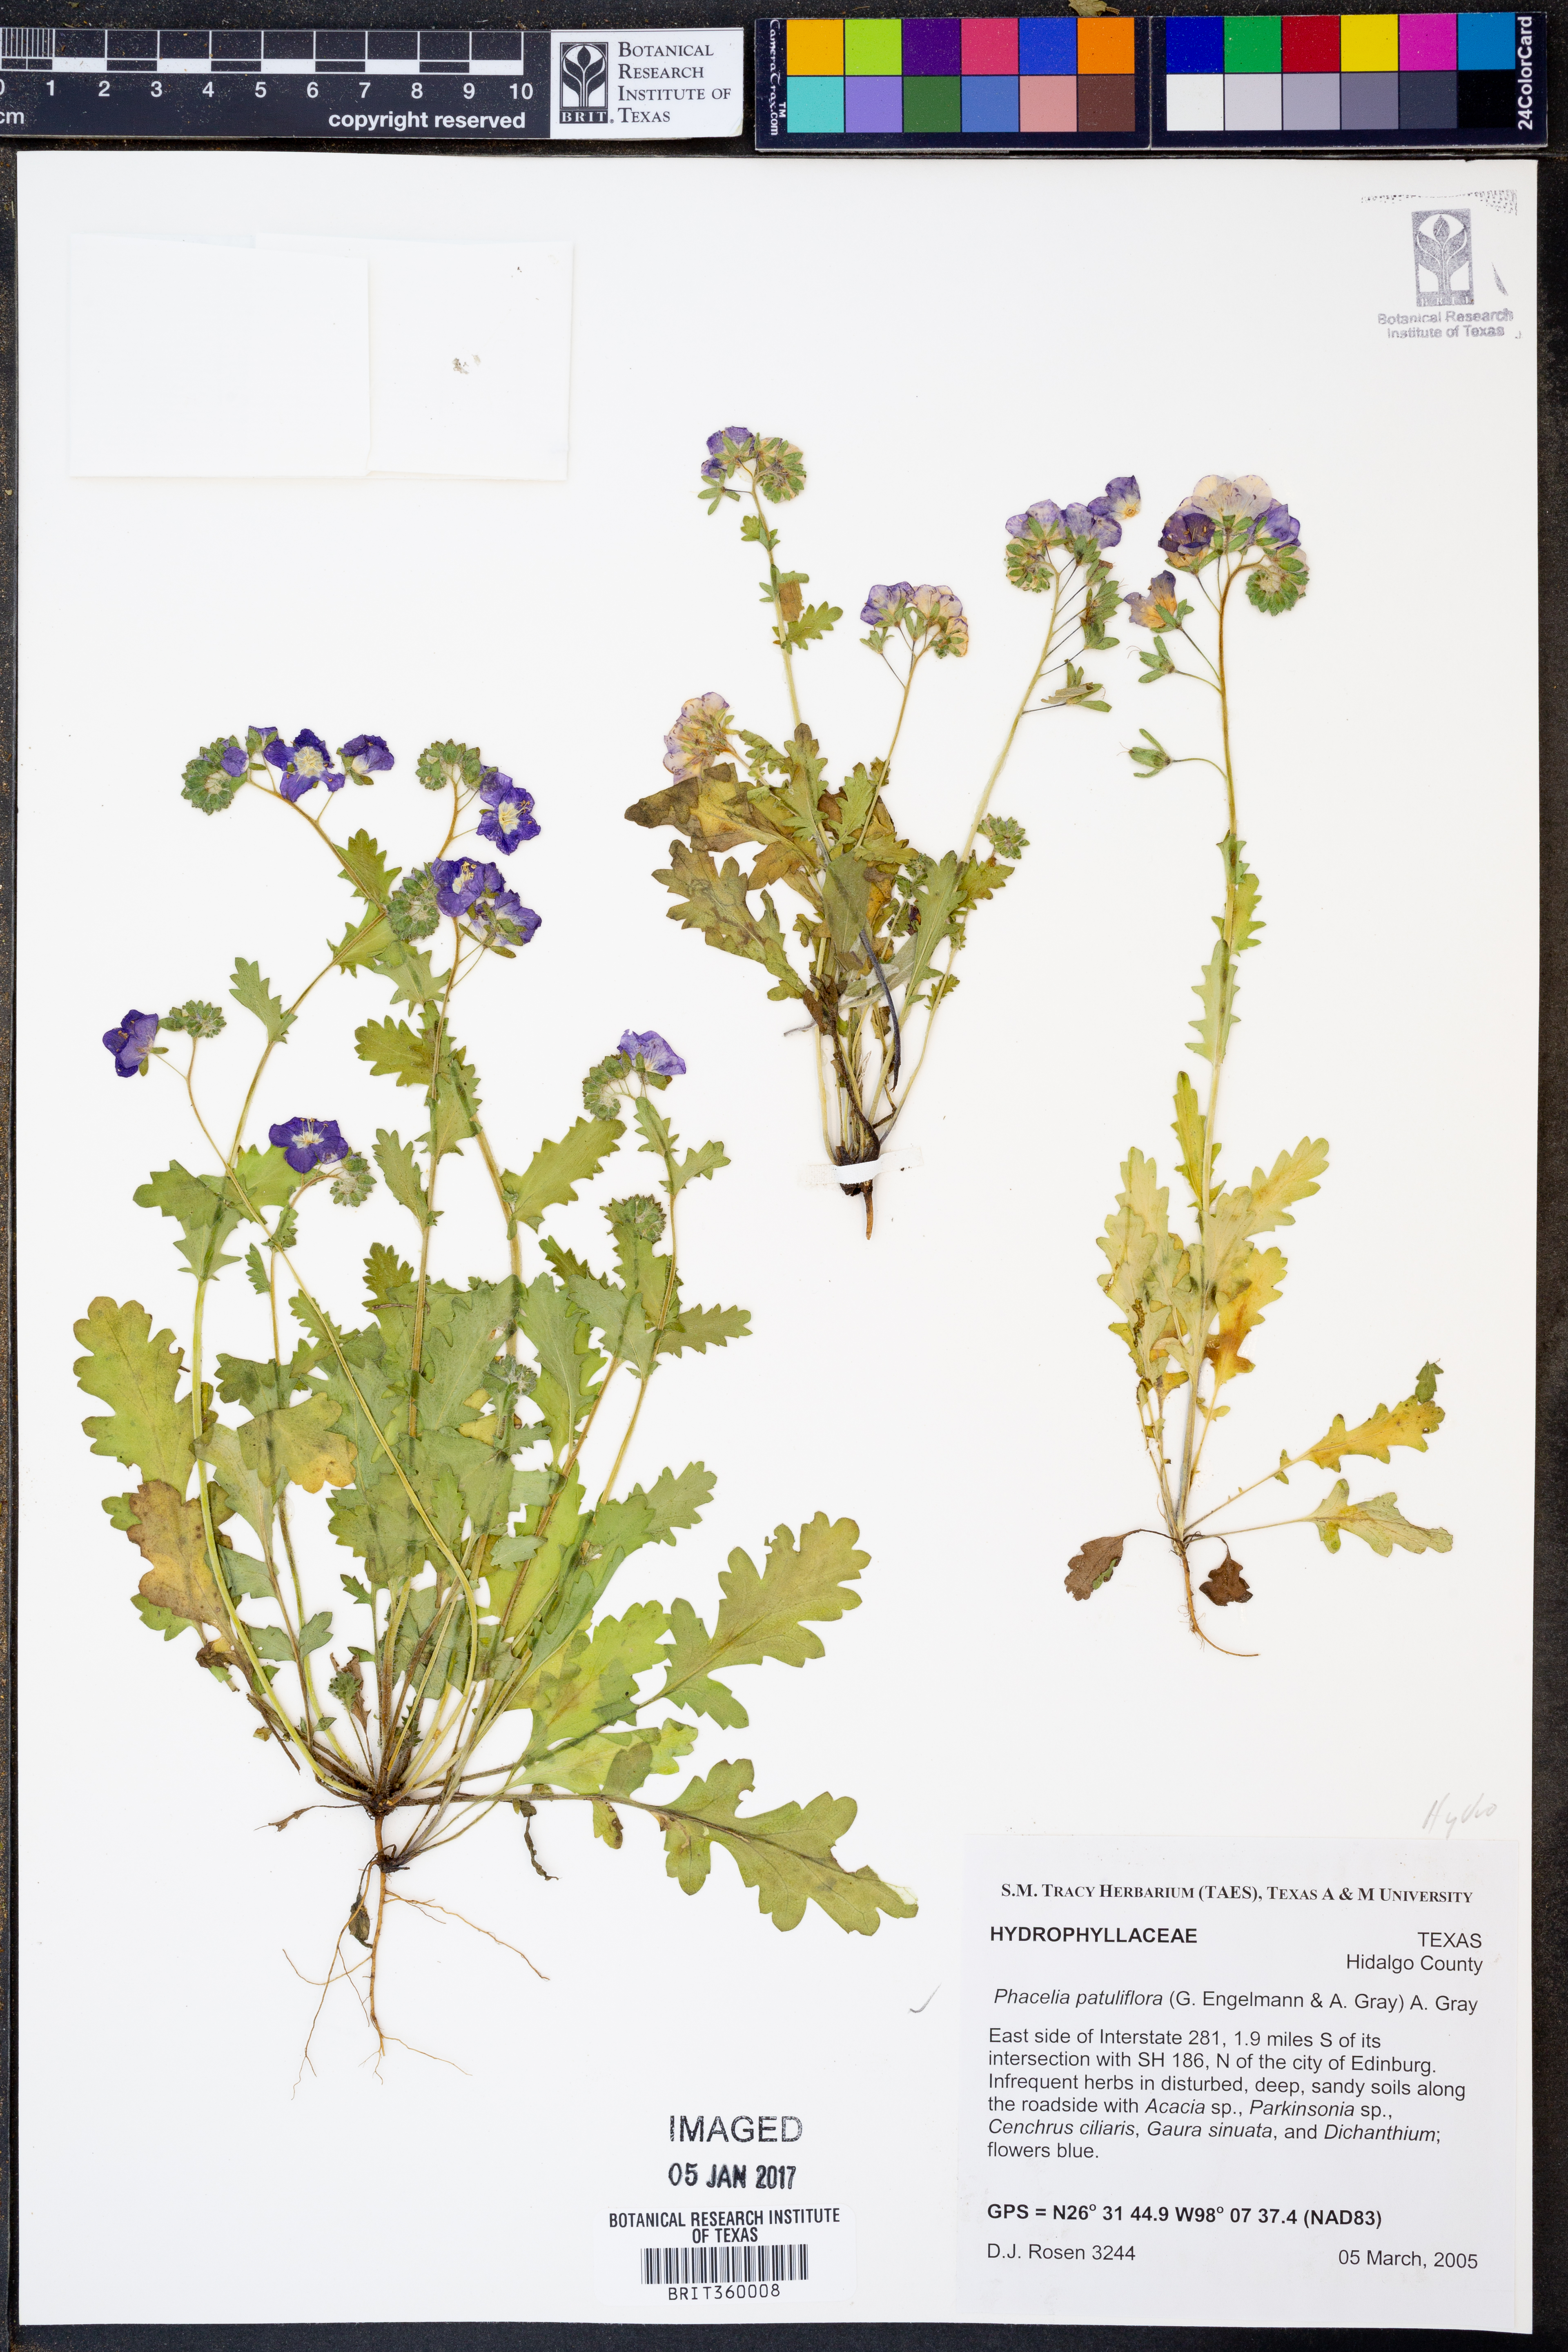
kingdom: Plantae
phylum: Tracheophyta
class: Magnoliopsida
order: Boraginales
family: Hydrophyllaceae
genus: Phacelia
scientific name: Phacelia patuliflora
